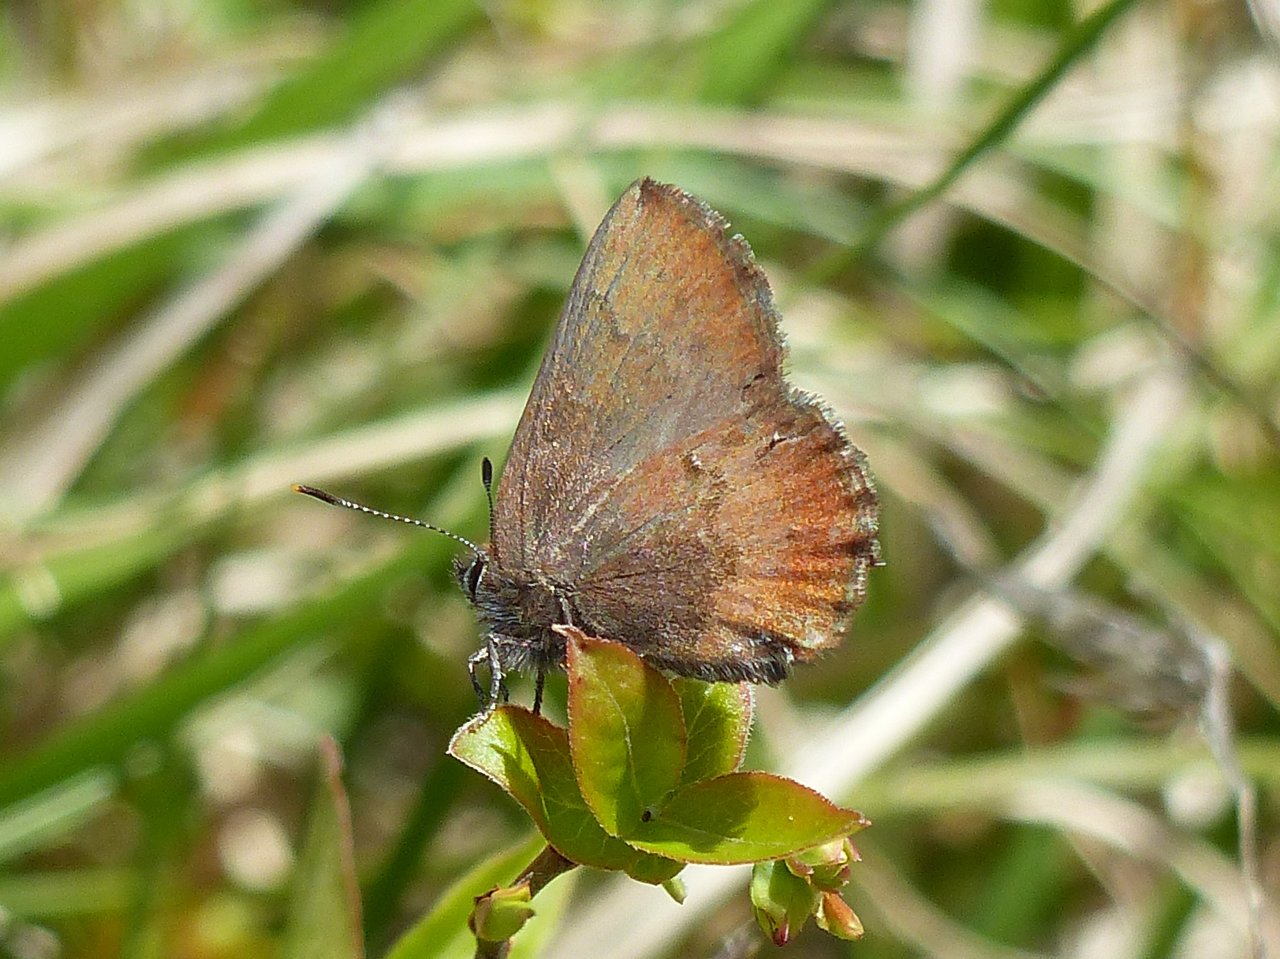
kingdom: Animalia
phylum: Arthropoda
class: Insecta
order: Lepidoptera
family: Lycaenidae
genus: Incisalia
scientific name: Incisalia irioides
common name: Brown Elfin
